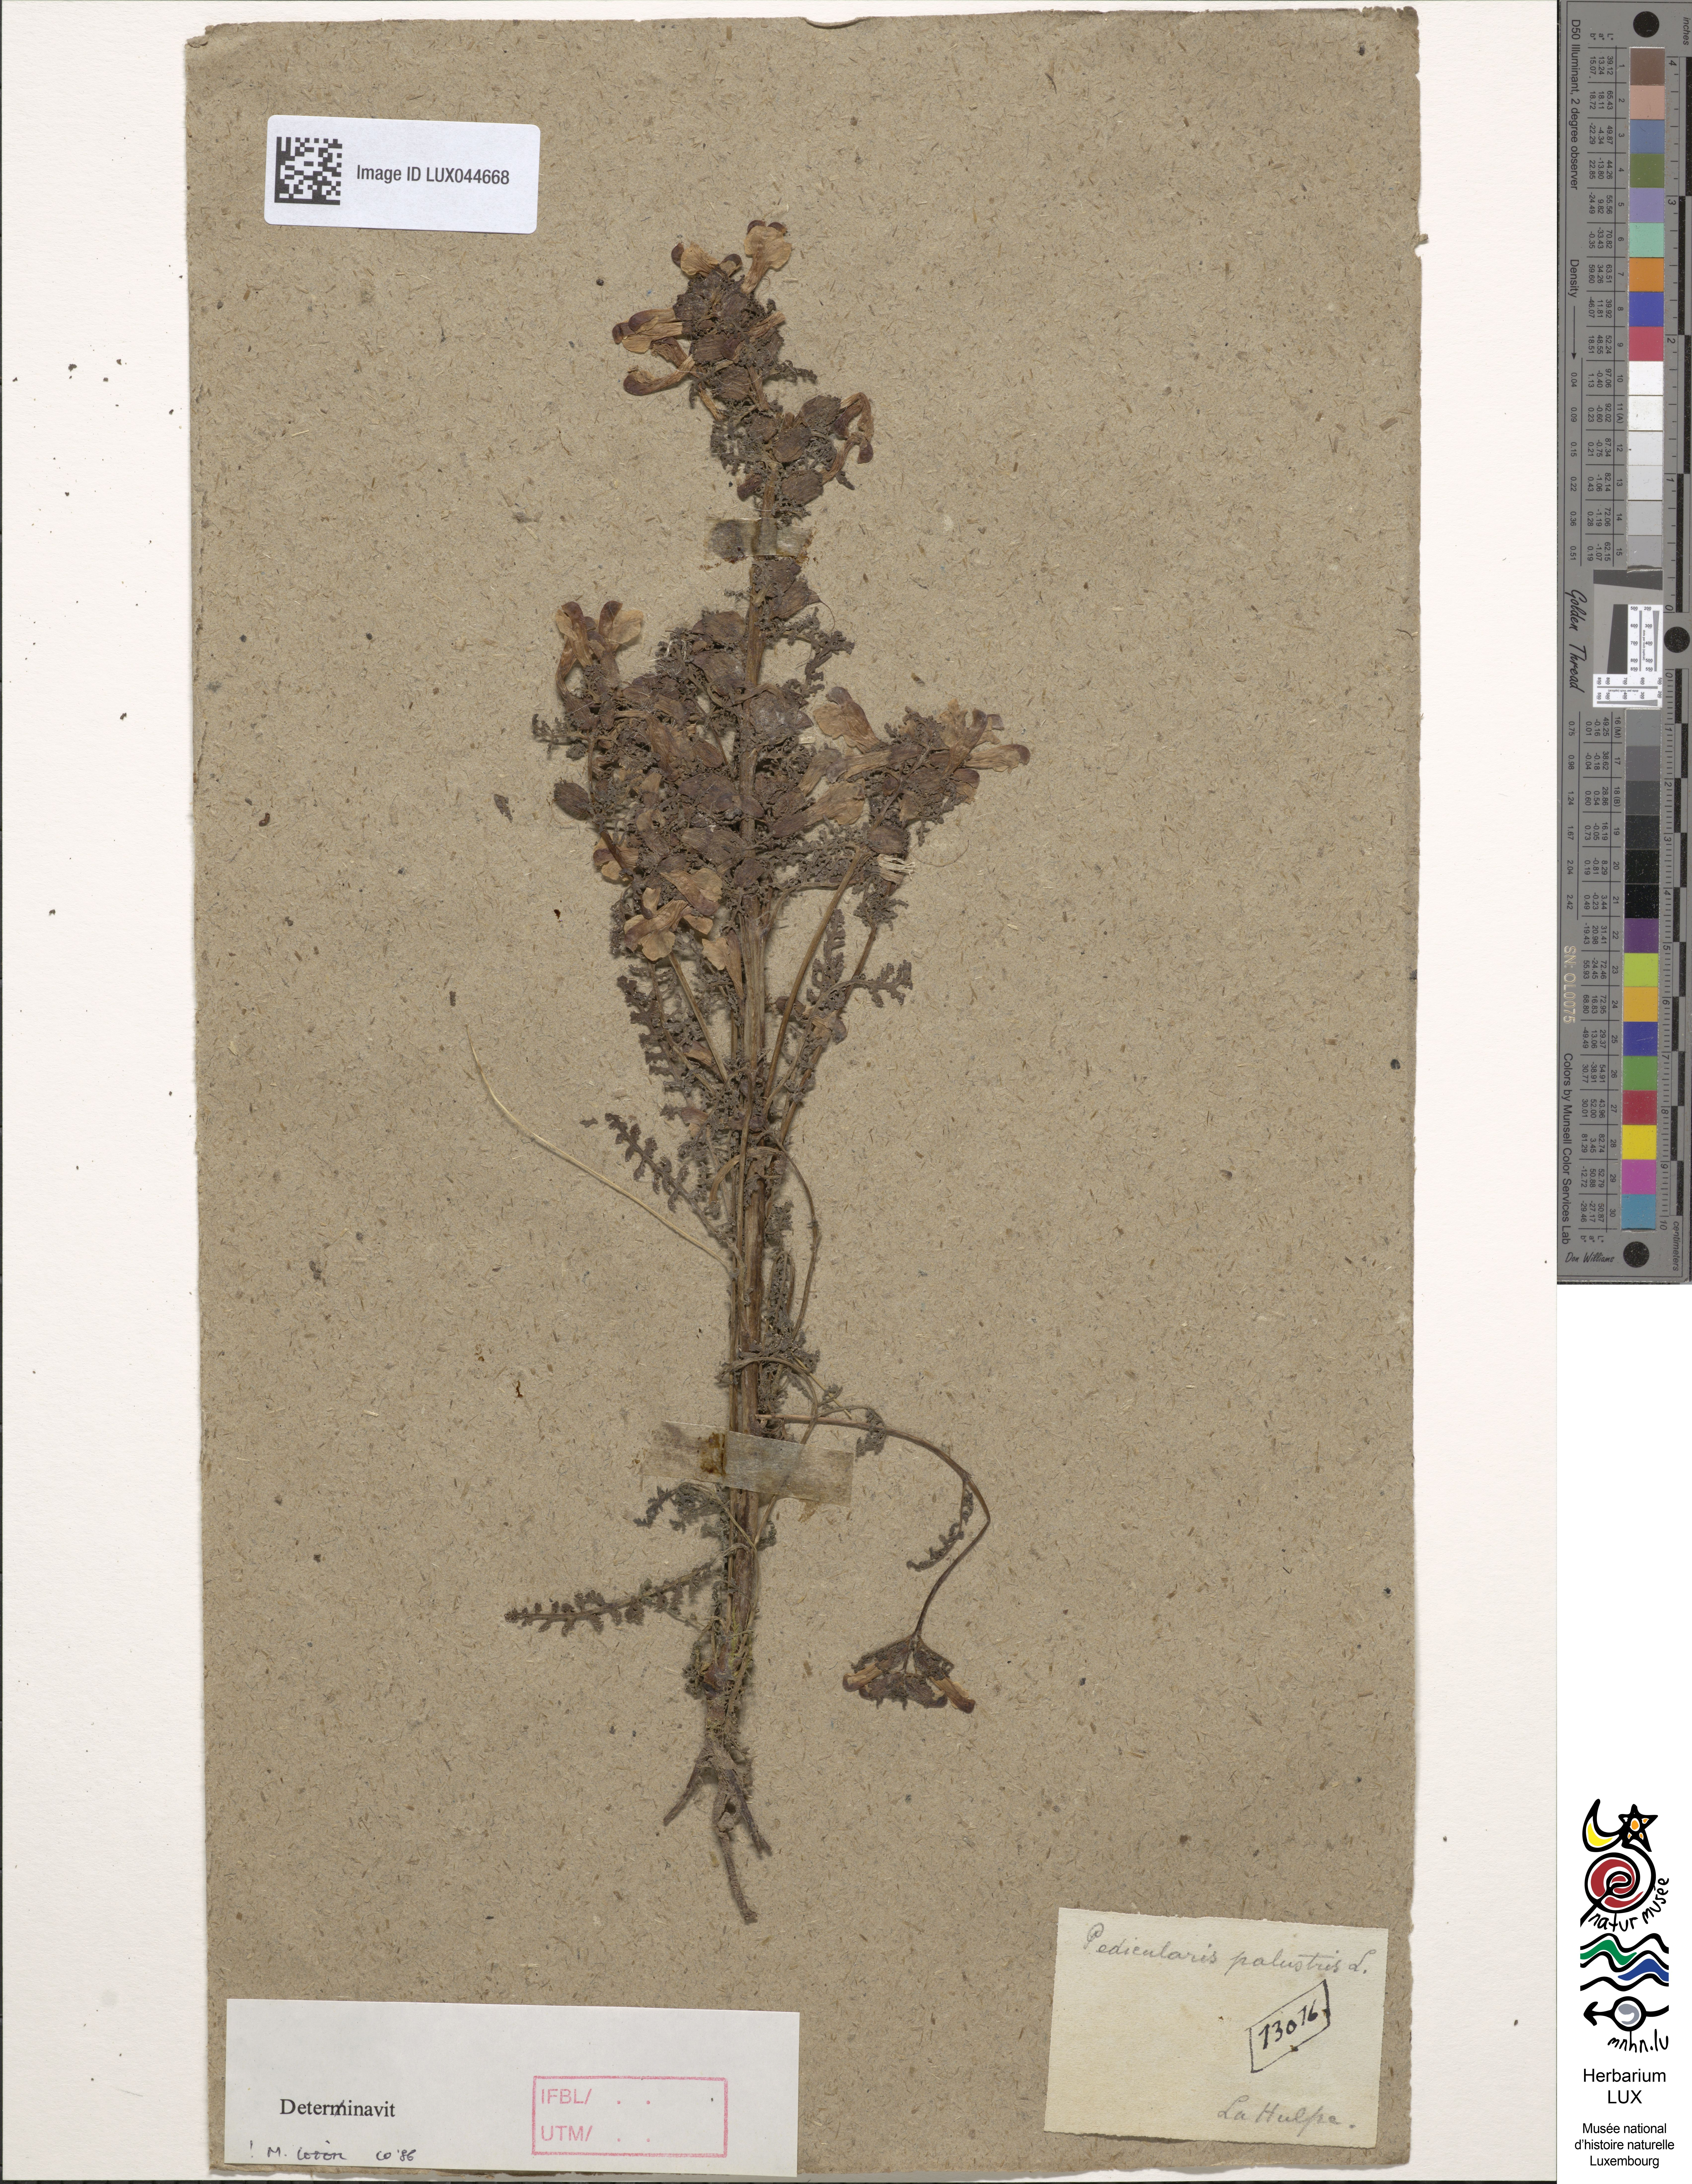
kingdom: Plantae
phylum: Tracheophyta
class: Magnoliopsida
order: Lamiales
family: Orobanchaceae
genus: Pedicularis
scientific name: Pedicularis palustris
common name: Marsh lousewort
